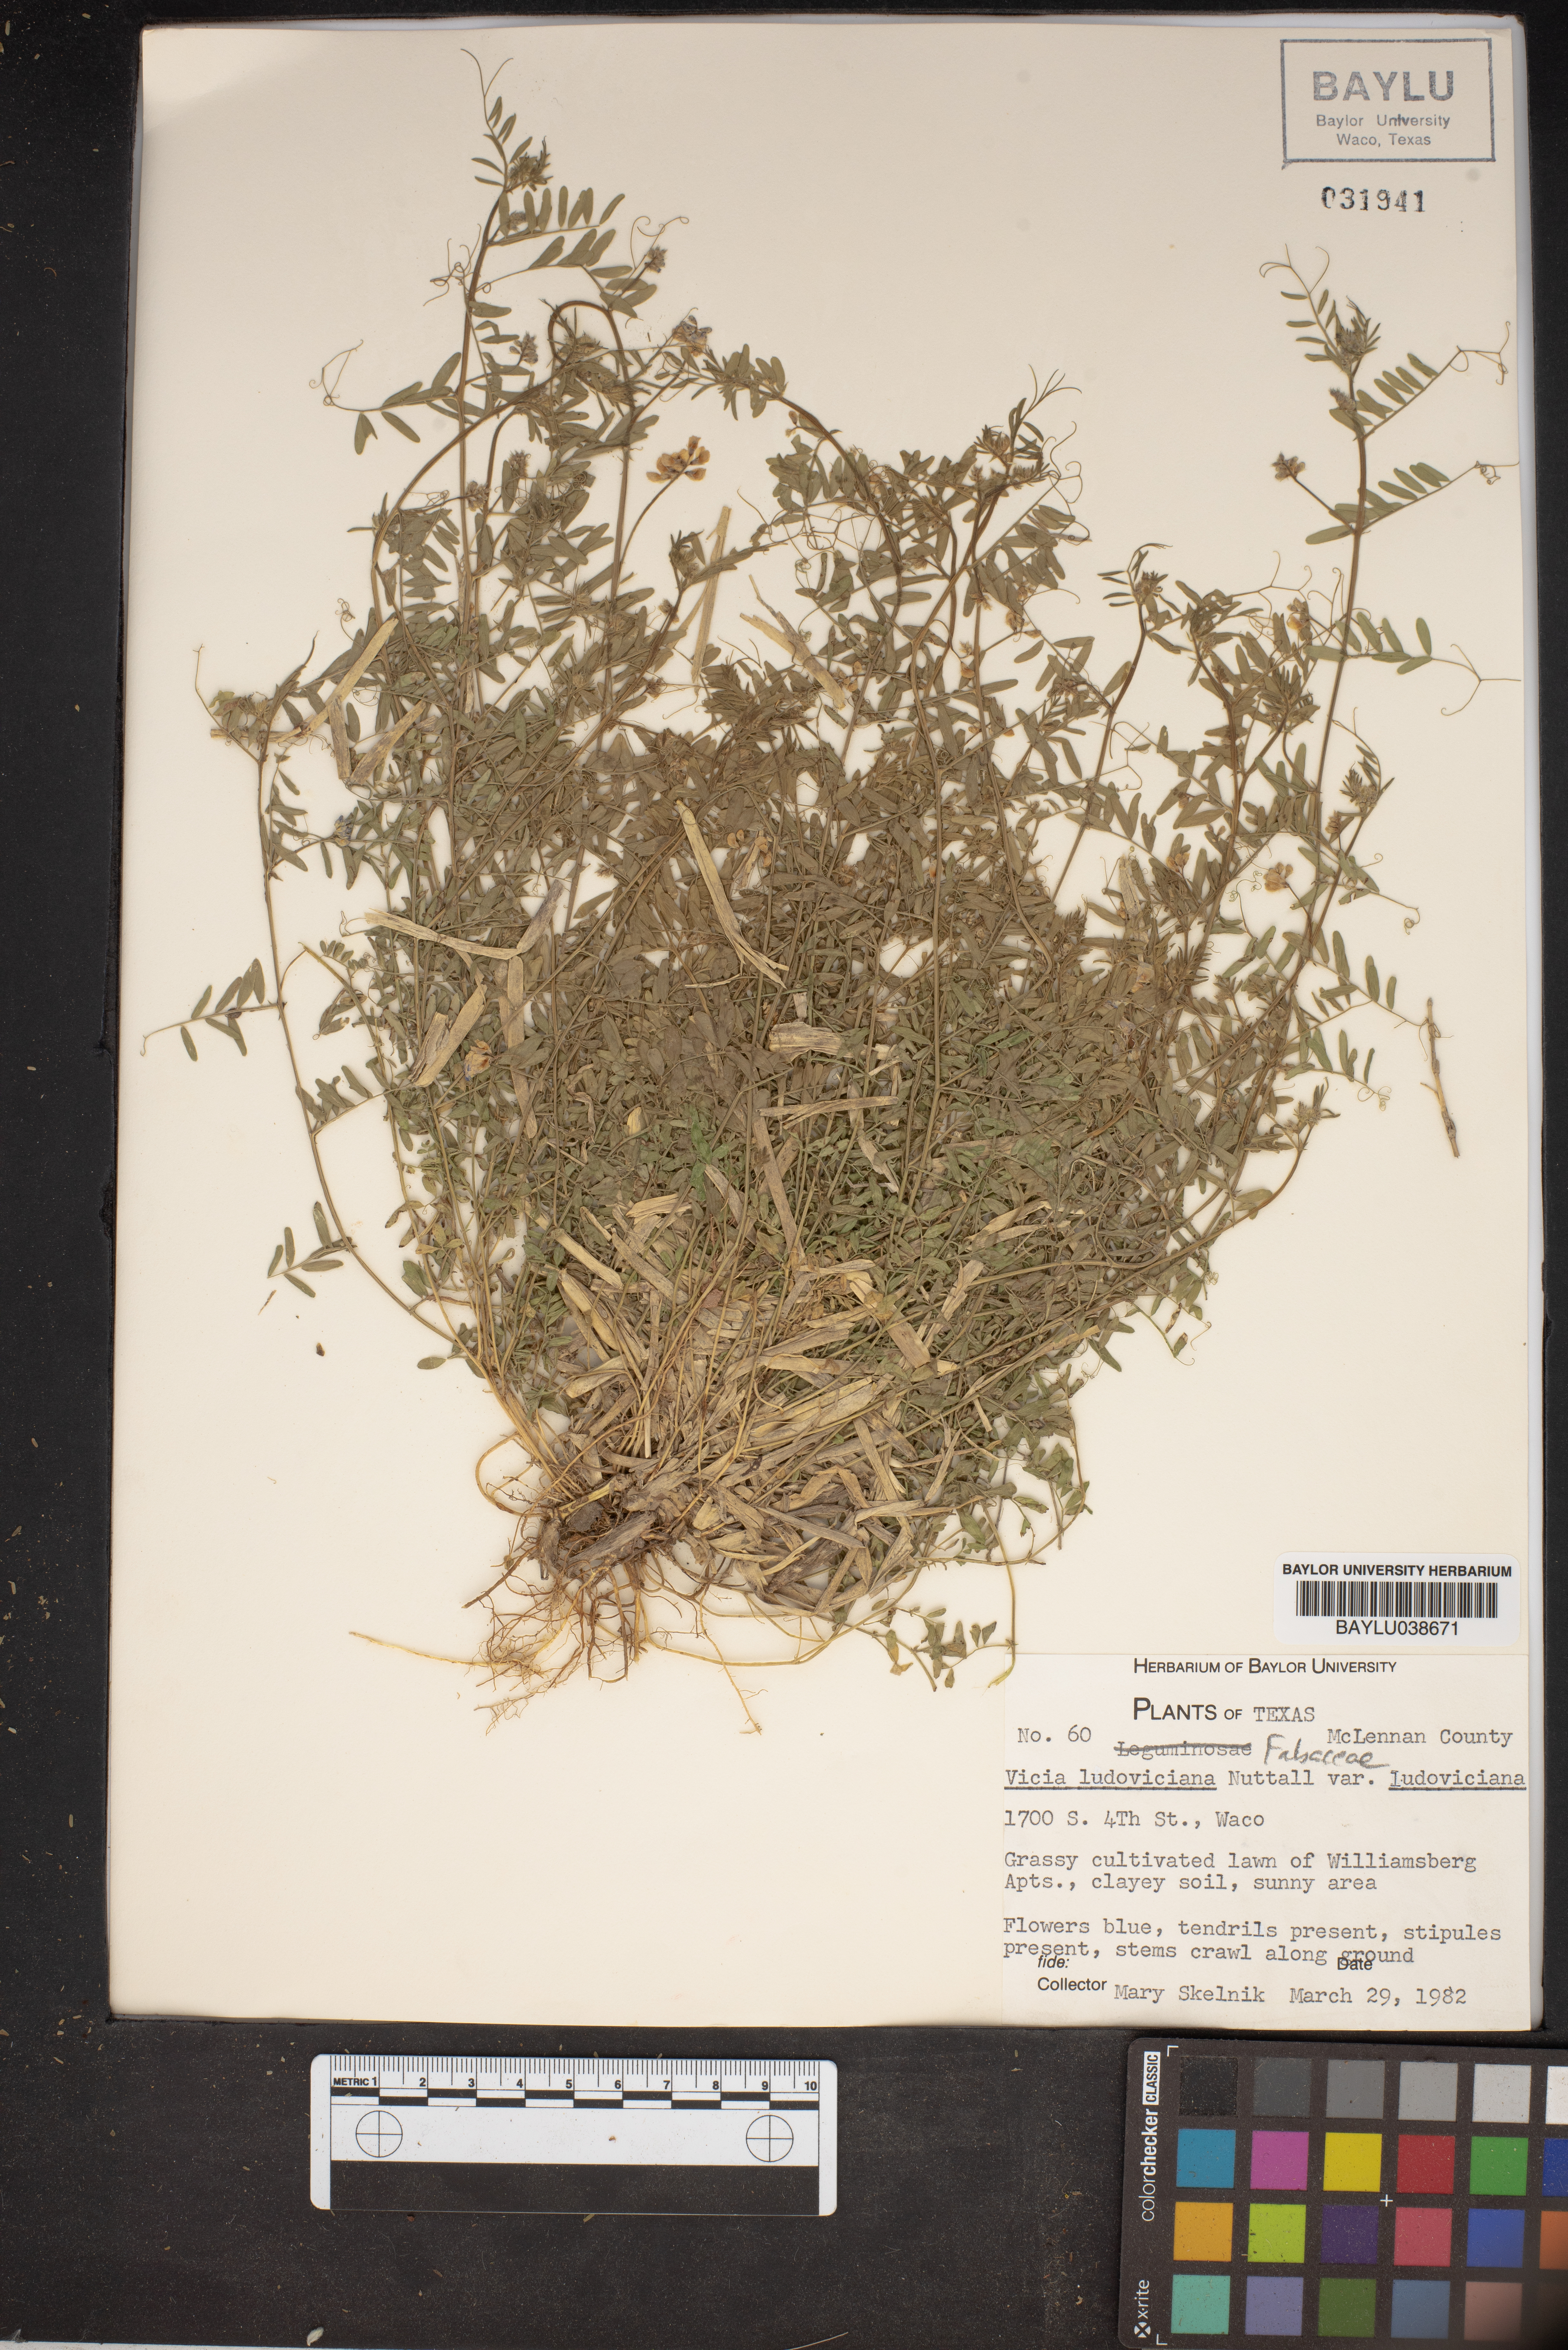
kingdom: Plantae
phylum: Tracheophyta
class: Magnoliopsida
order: Fabales
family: Fabaceae
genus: Vicia
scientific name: Vicia ludoviciana
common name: Louisiana vetch
